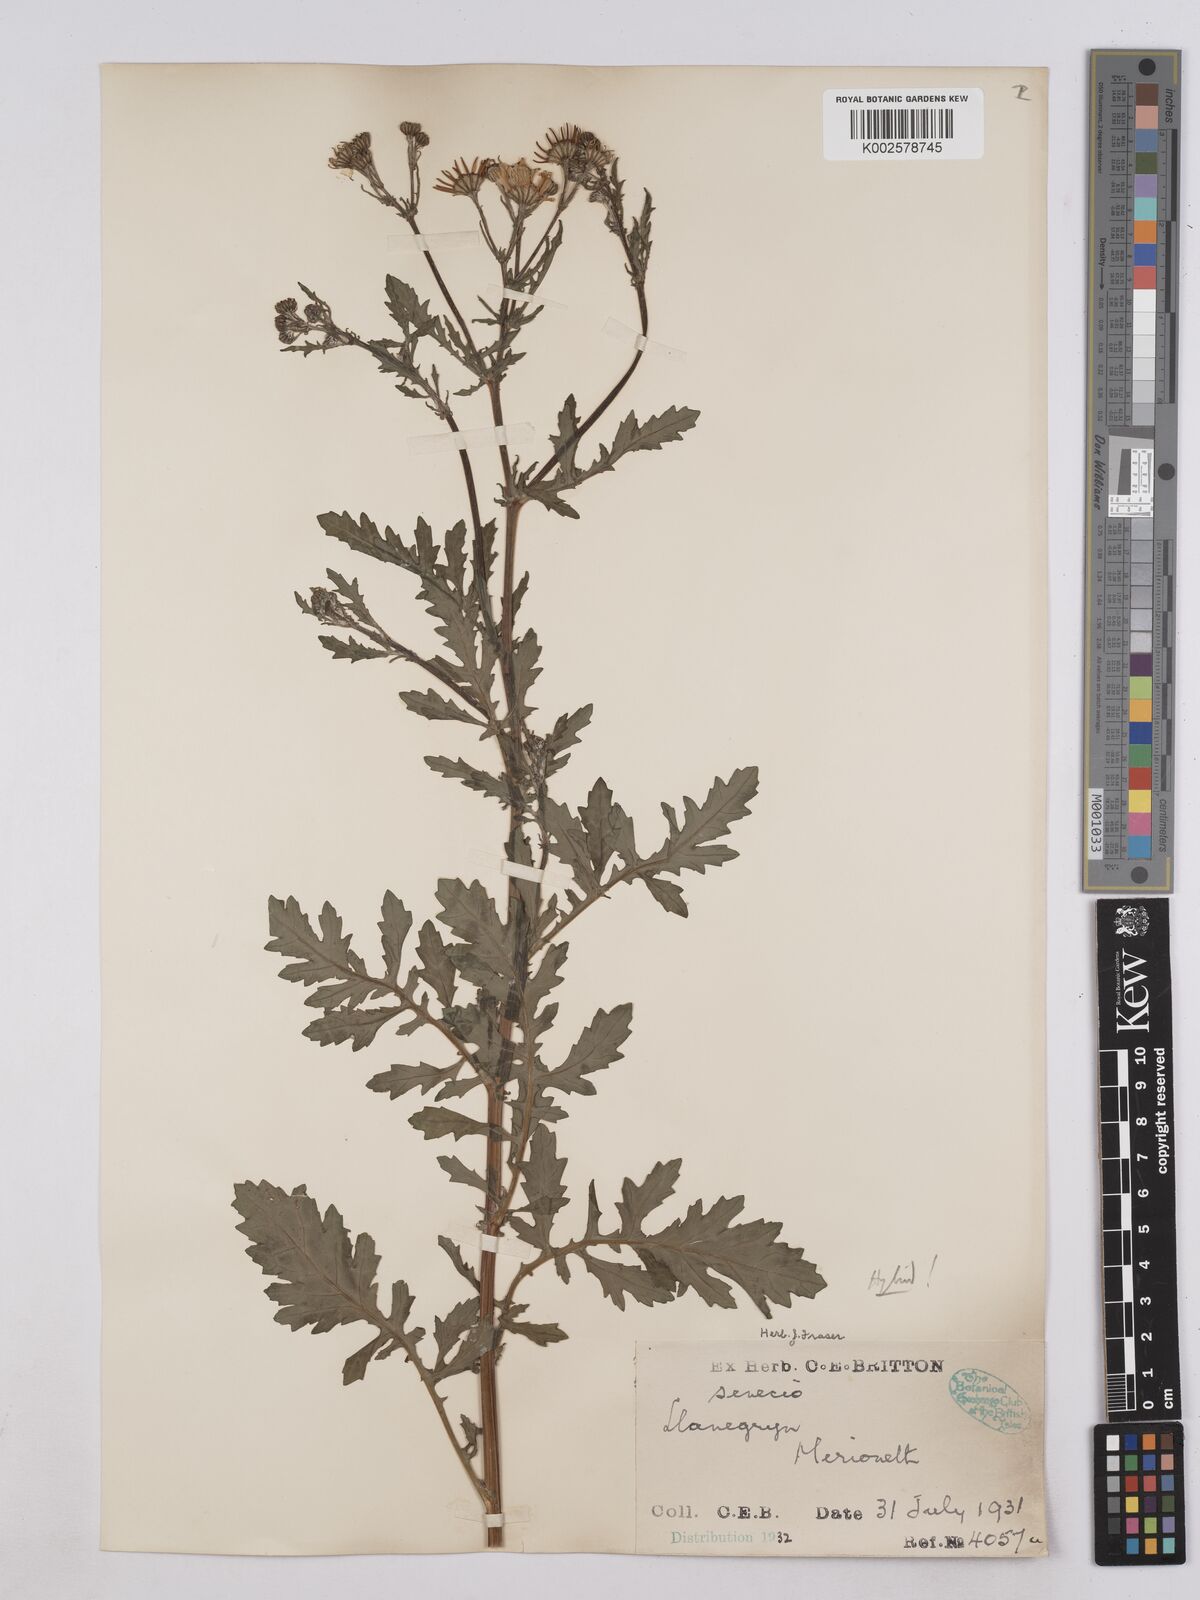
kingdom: Plantae
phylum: Tracheophyta
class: Magnoliopsida
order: Asterales
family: Asteraceae
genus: Jacobaea
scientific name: Jacobaea aquatica
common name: Water ragwort
